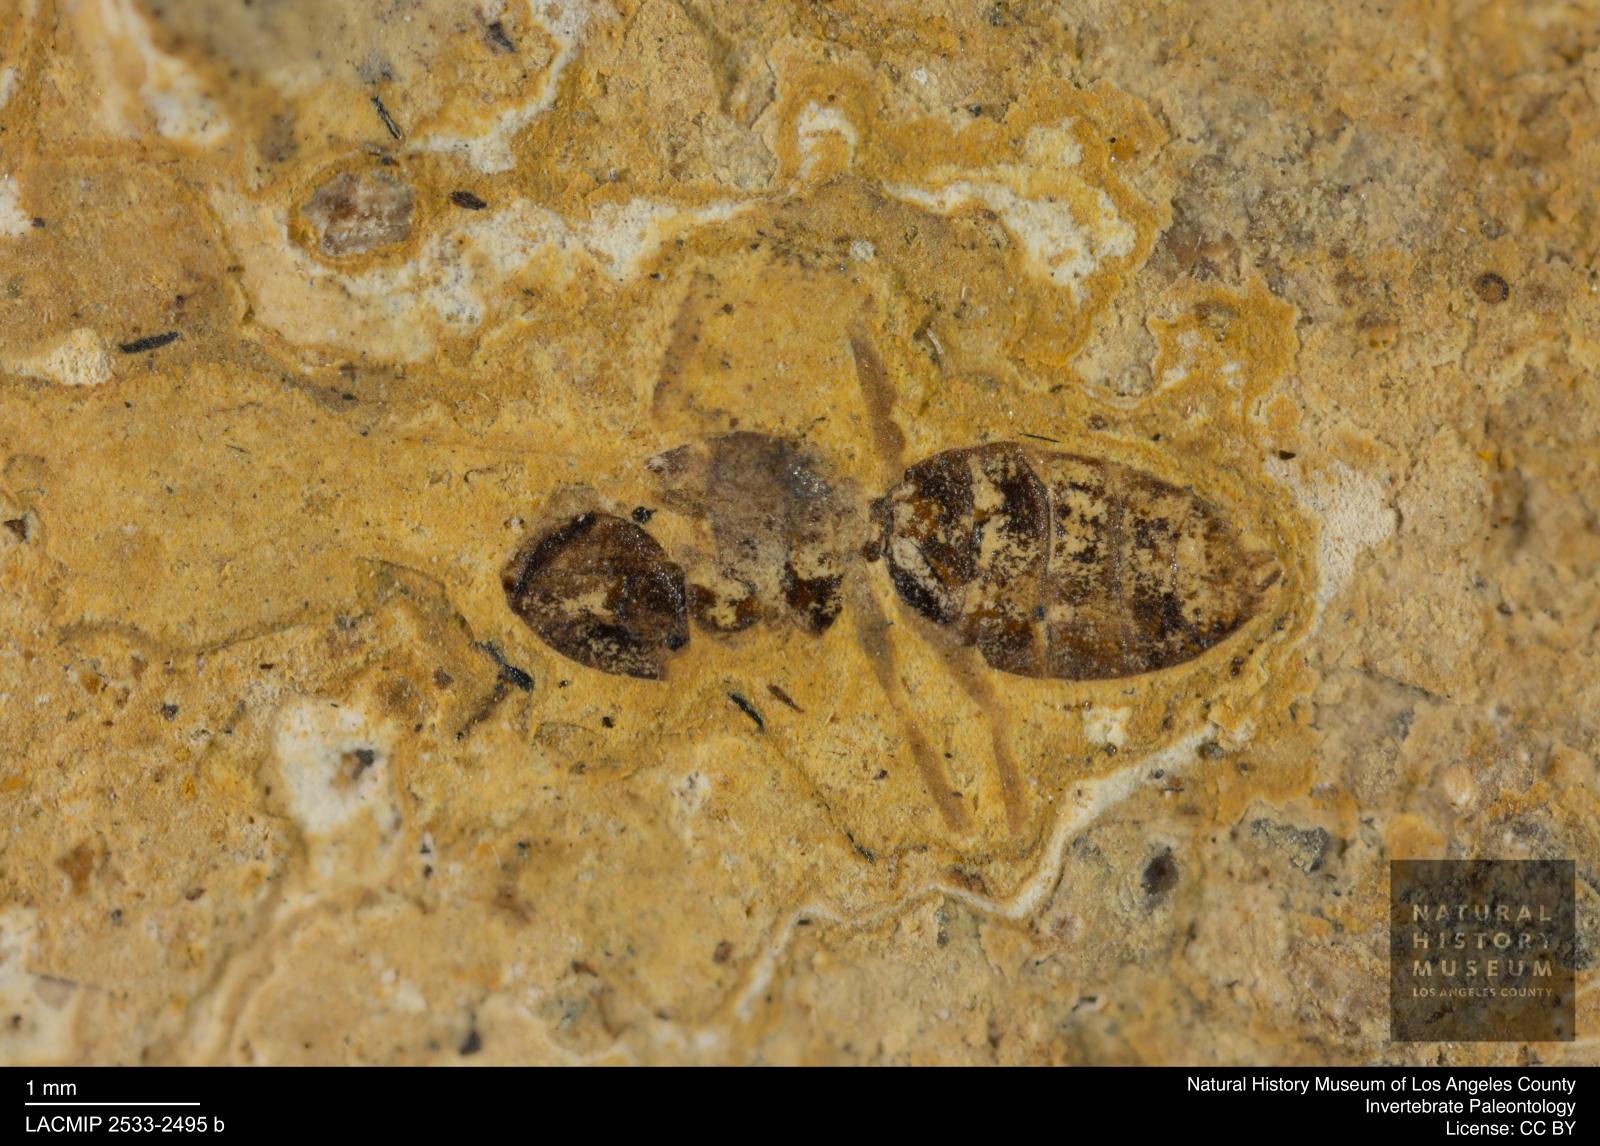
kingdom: Animalia
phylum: Arthropoda
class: Insecta
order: Hymenoptera
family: Formicidae
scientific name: Formicidae
